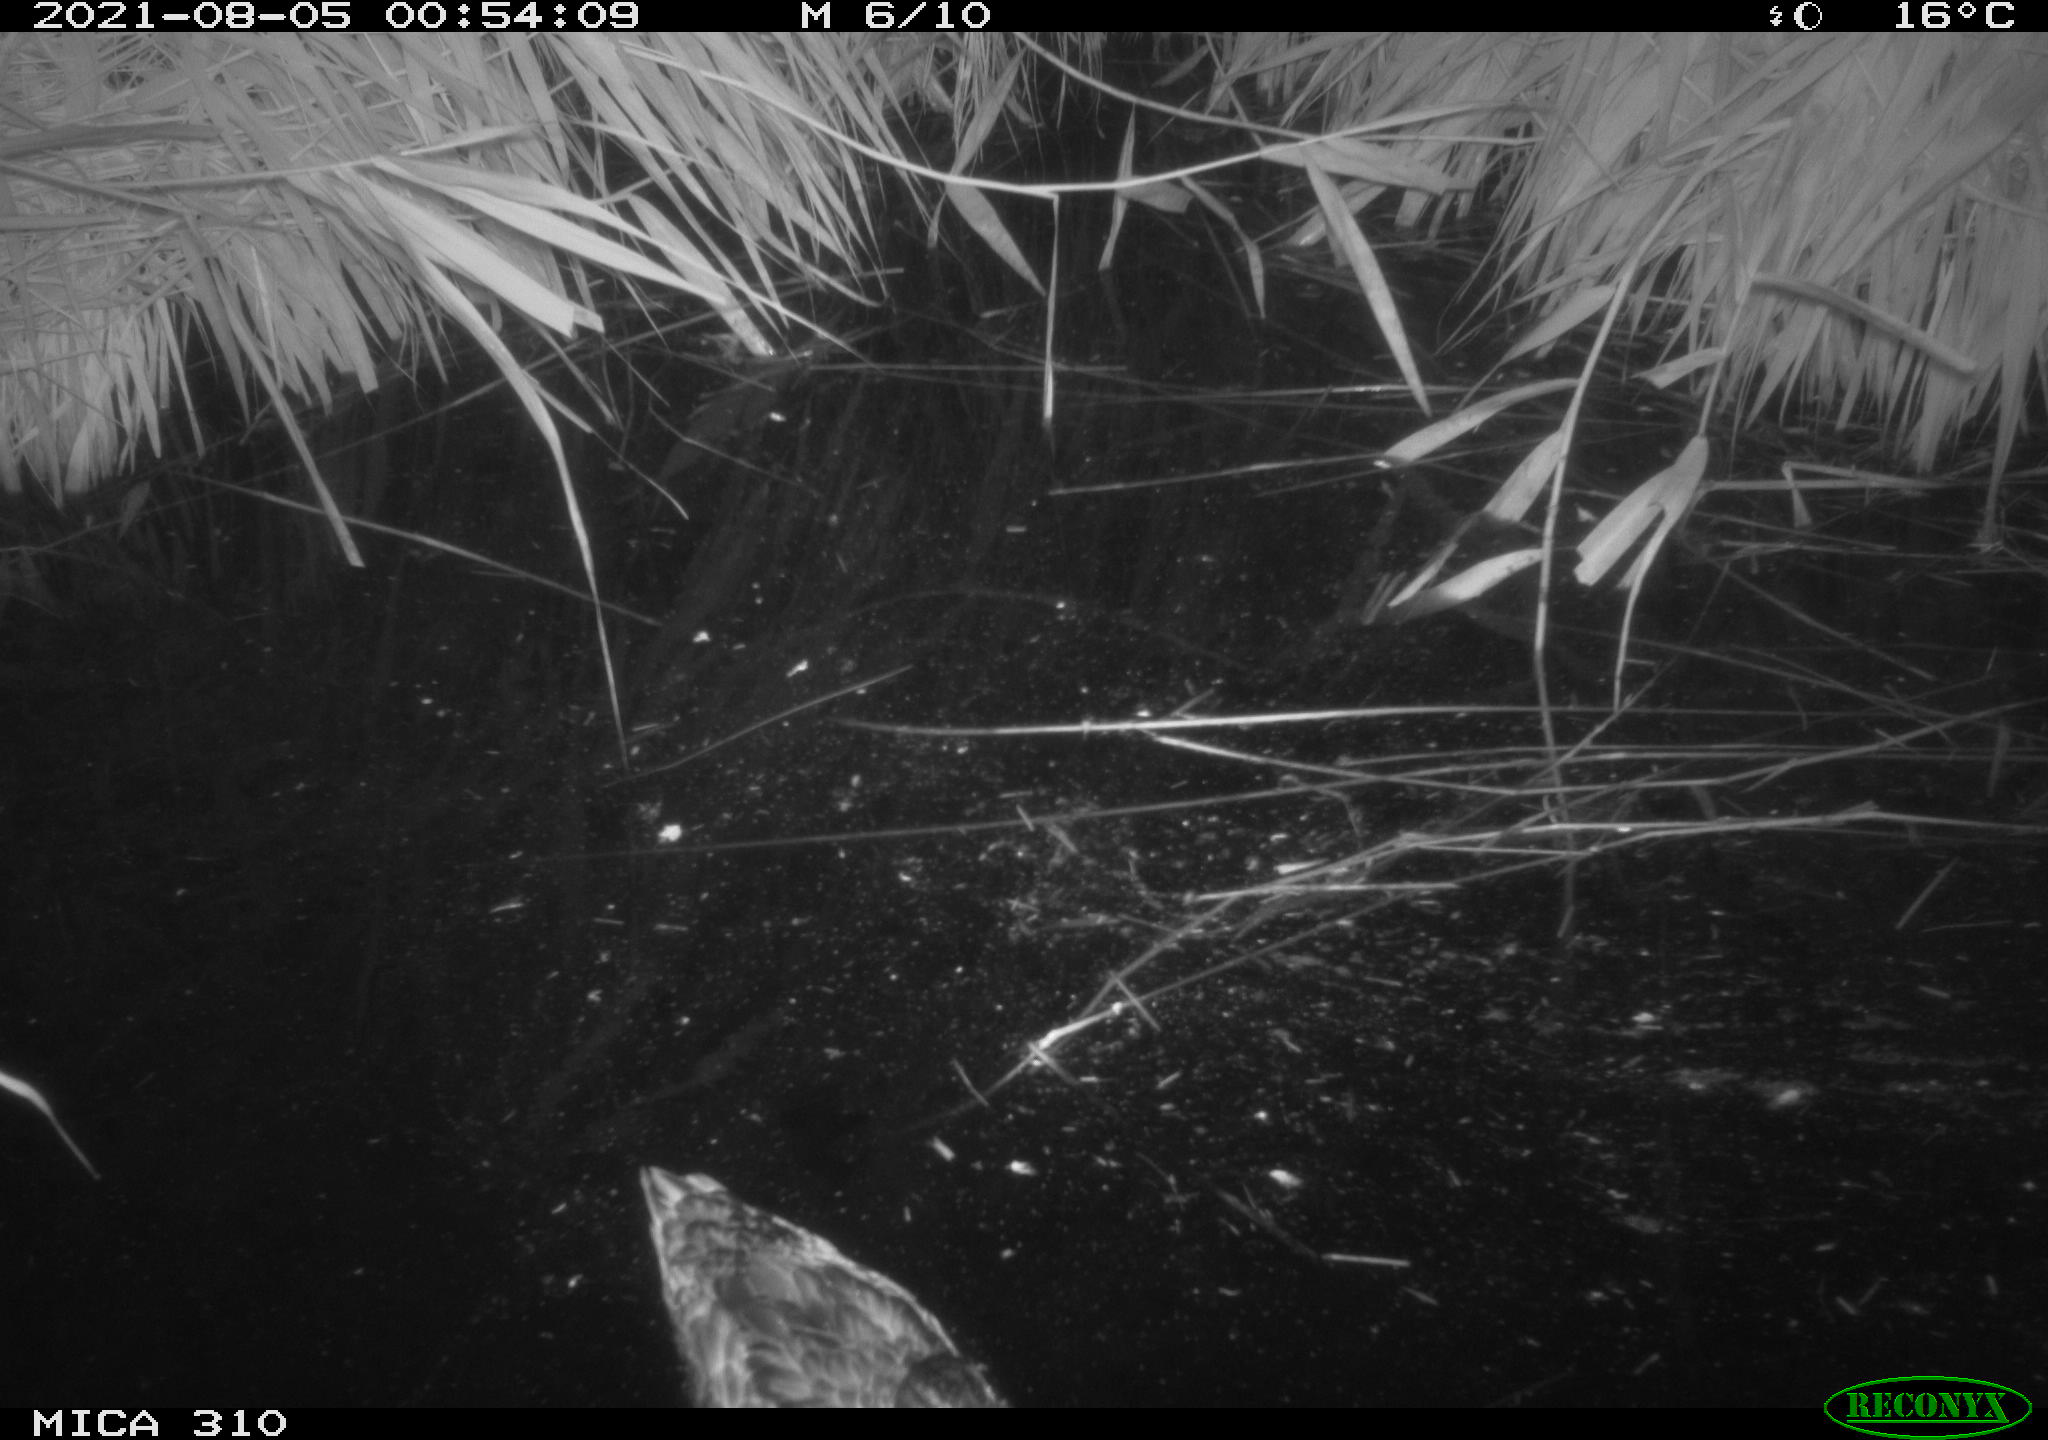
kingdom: Animalia
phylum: Chordata
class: Aves
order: Anseriformes
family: Anatidae
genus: Mareca
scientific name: Mareca strepera
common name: Gadwall
